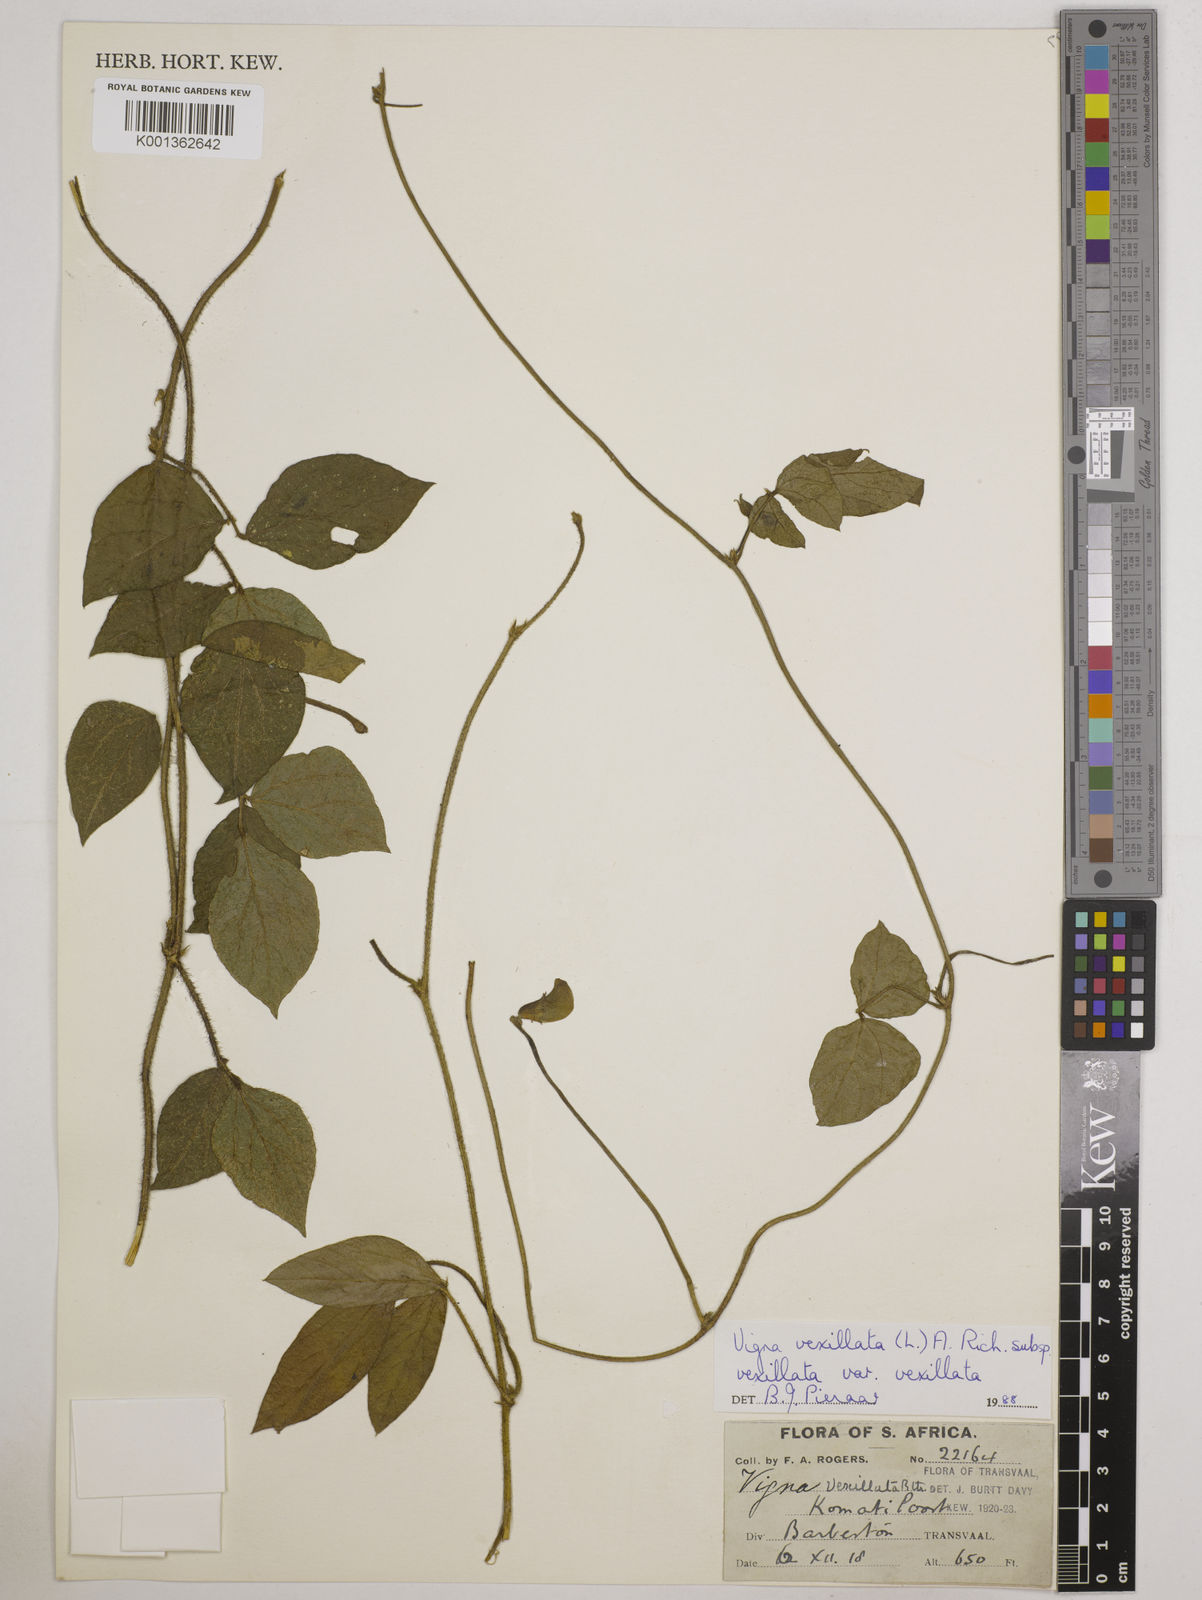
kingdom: Plantae
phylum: Tracheophyta
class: Magnoliopsida
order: Fabales
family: Fabaceae
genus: Vigna
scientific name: Vigna vexillata
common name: Zombi pea
